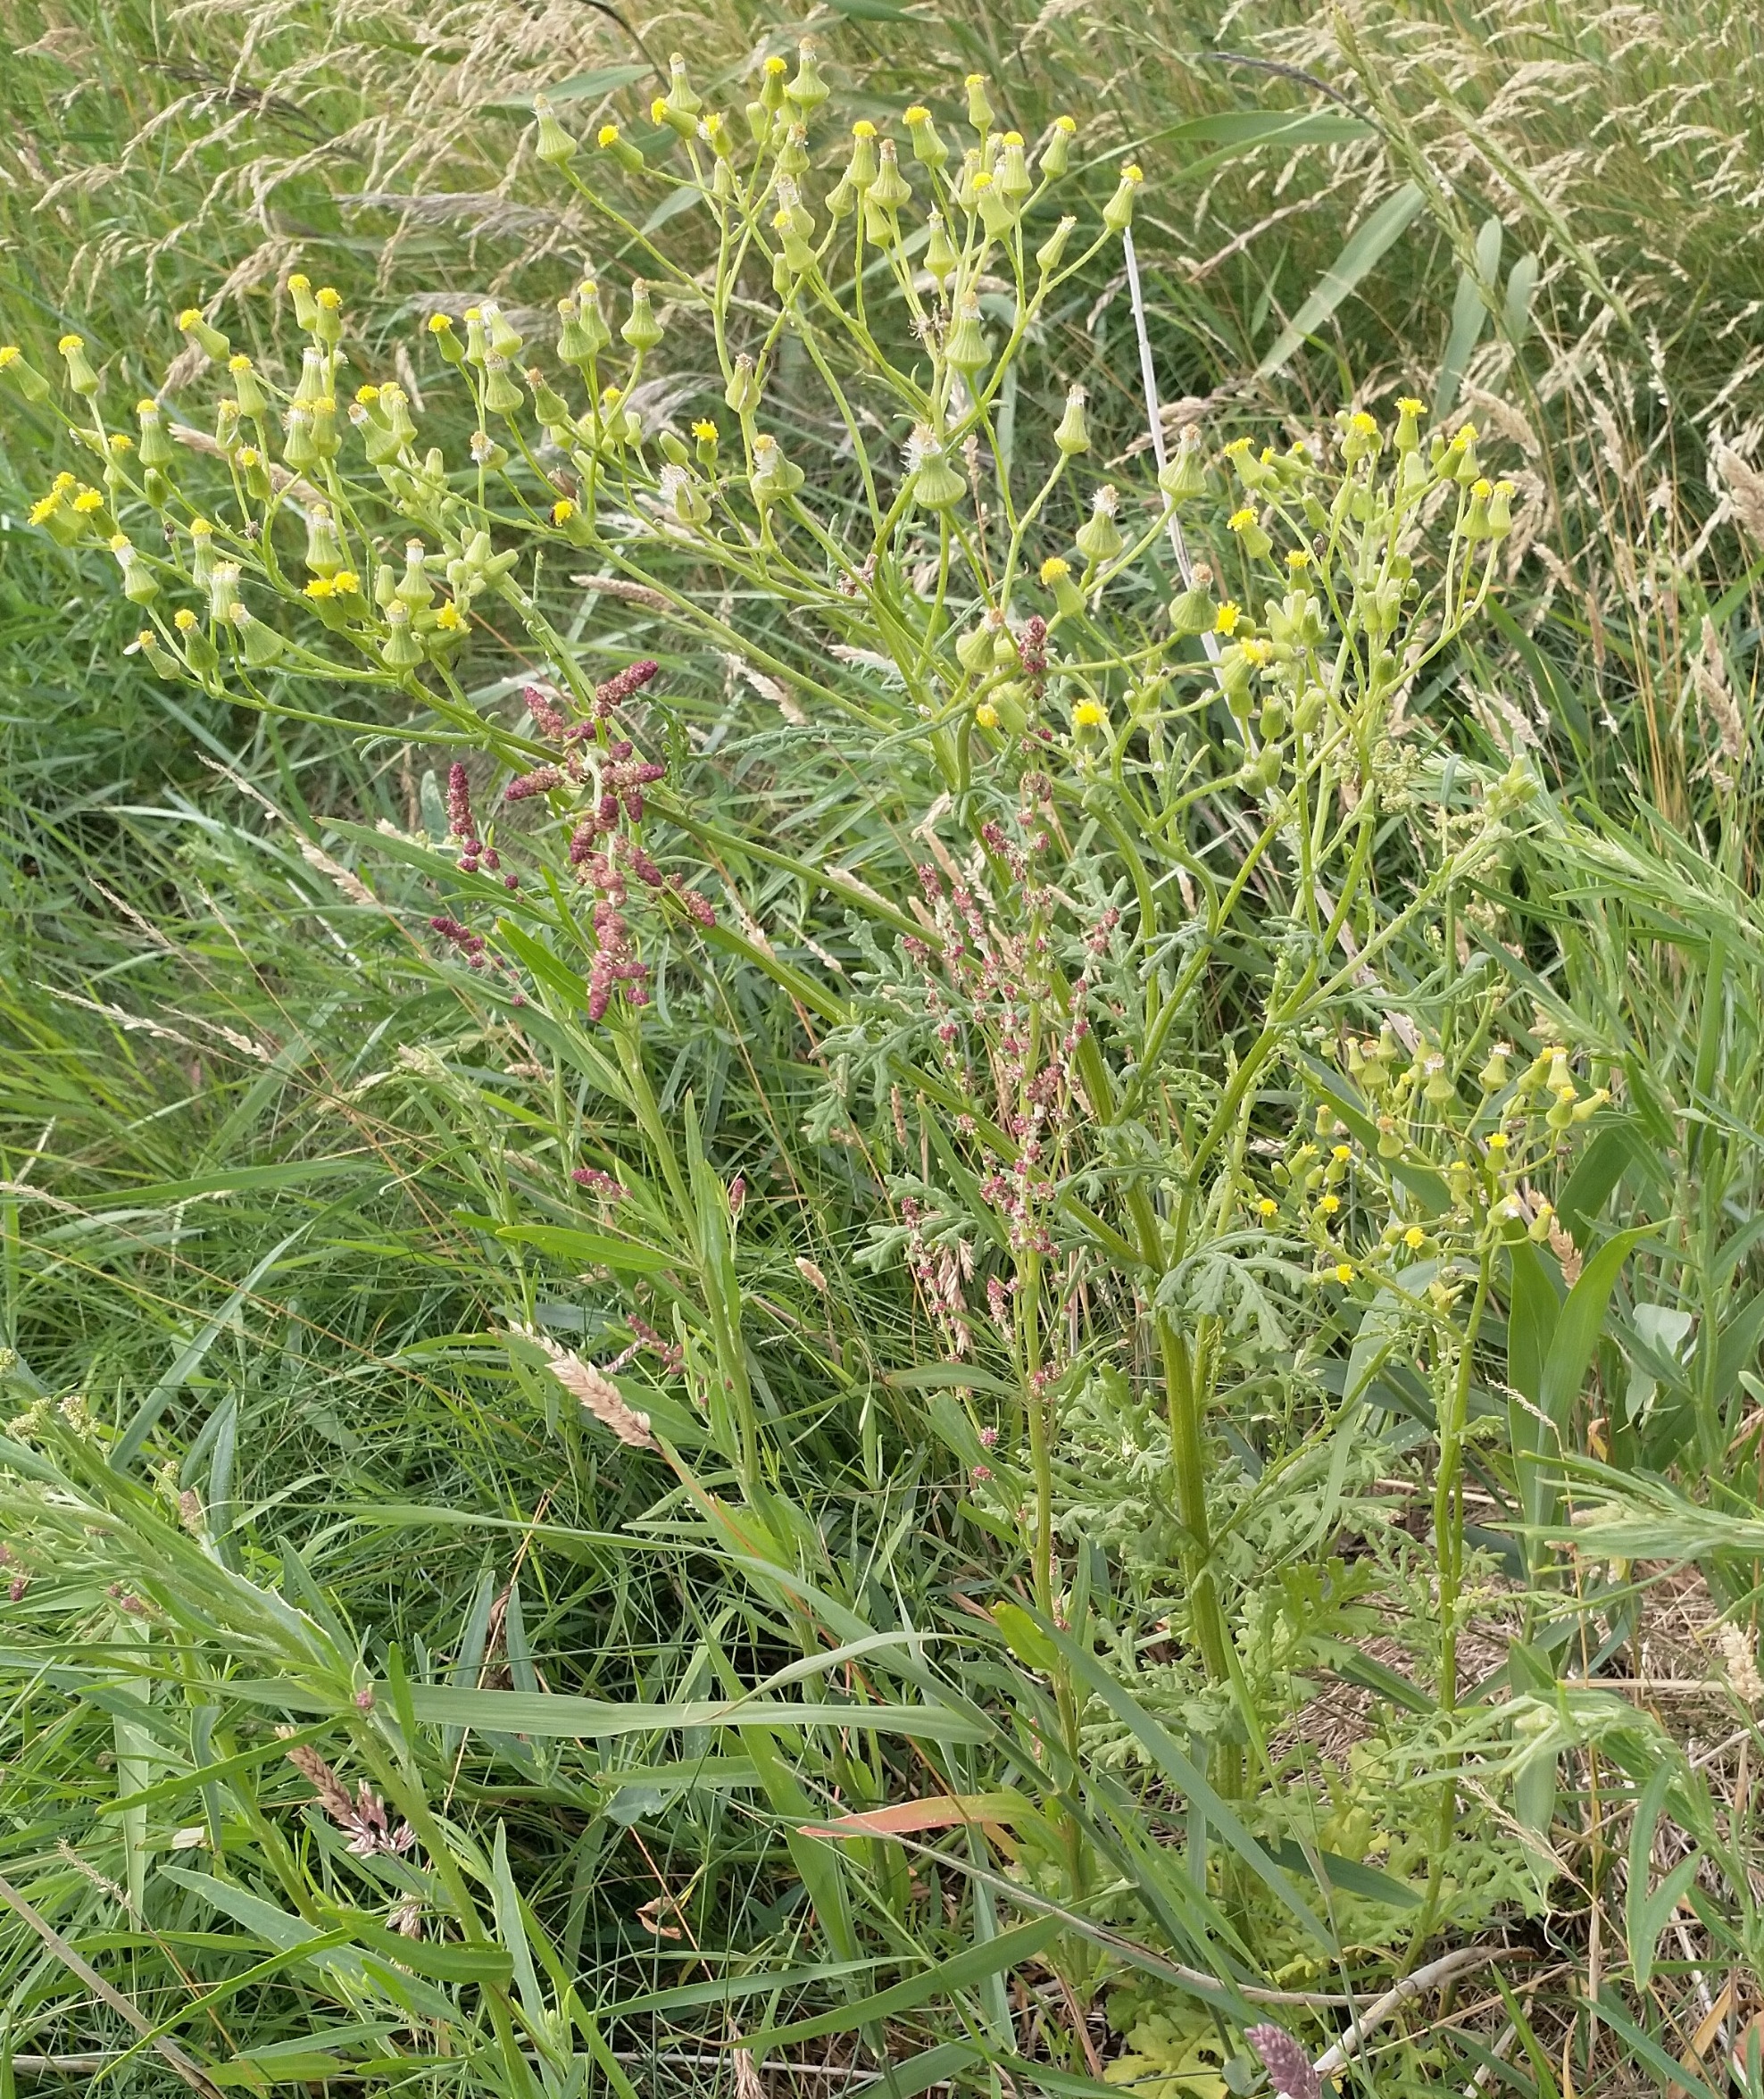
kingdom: Plantae
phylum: Tracheophyta
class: Magnoliopsida
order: Asterales
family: Asteraceae
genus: Senecio
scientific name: Senecio sylvaticus
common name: Skov-brandbæger
